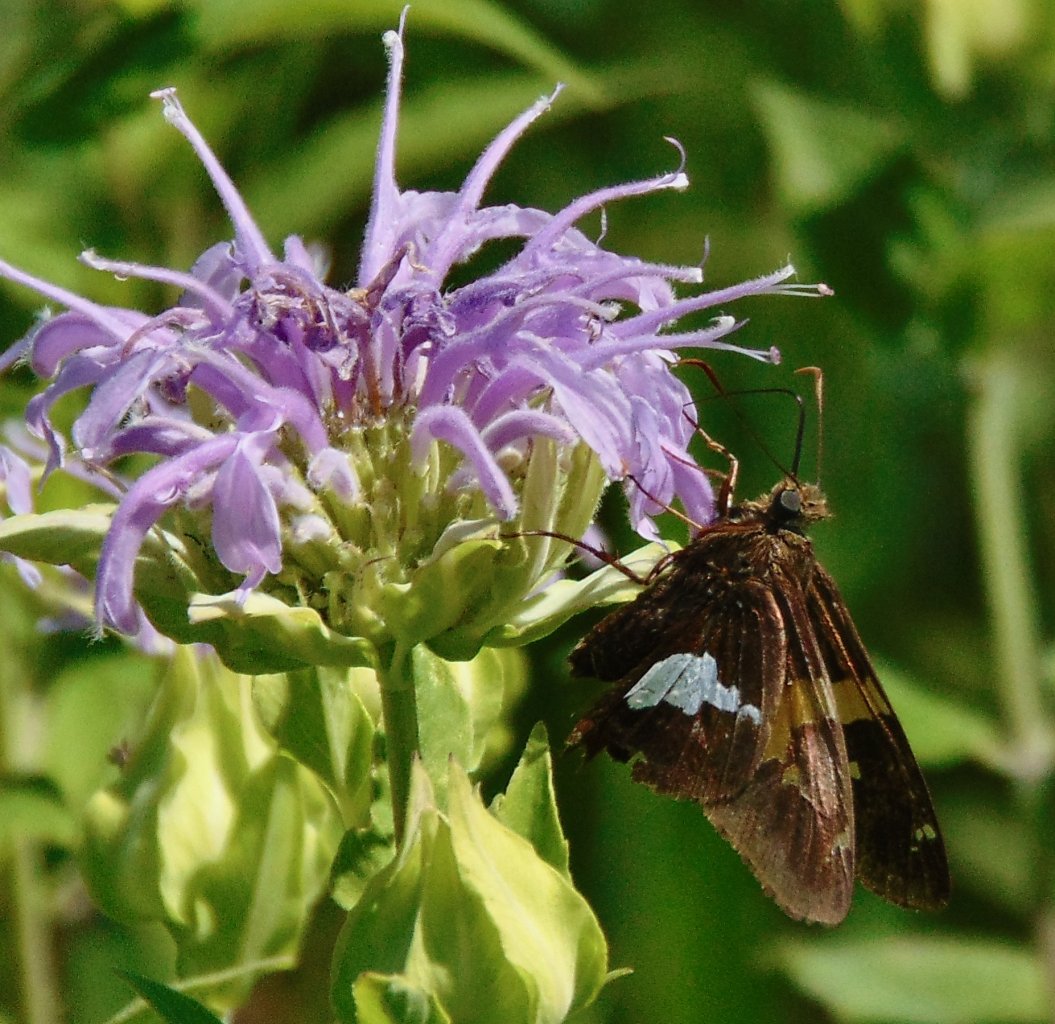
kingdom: Animalia
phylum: Arthropoda
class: Insecta
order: Lepidoptera
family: Hesperiidae
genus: Epargyreus
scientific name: Epargyreus clarus
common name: Silver-spotted Skipper
